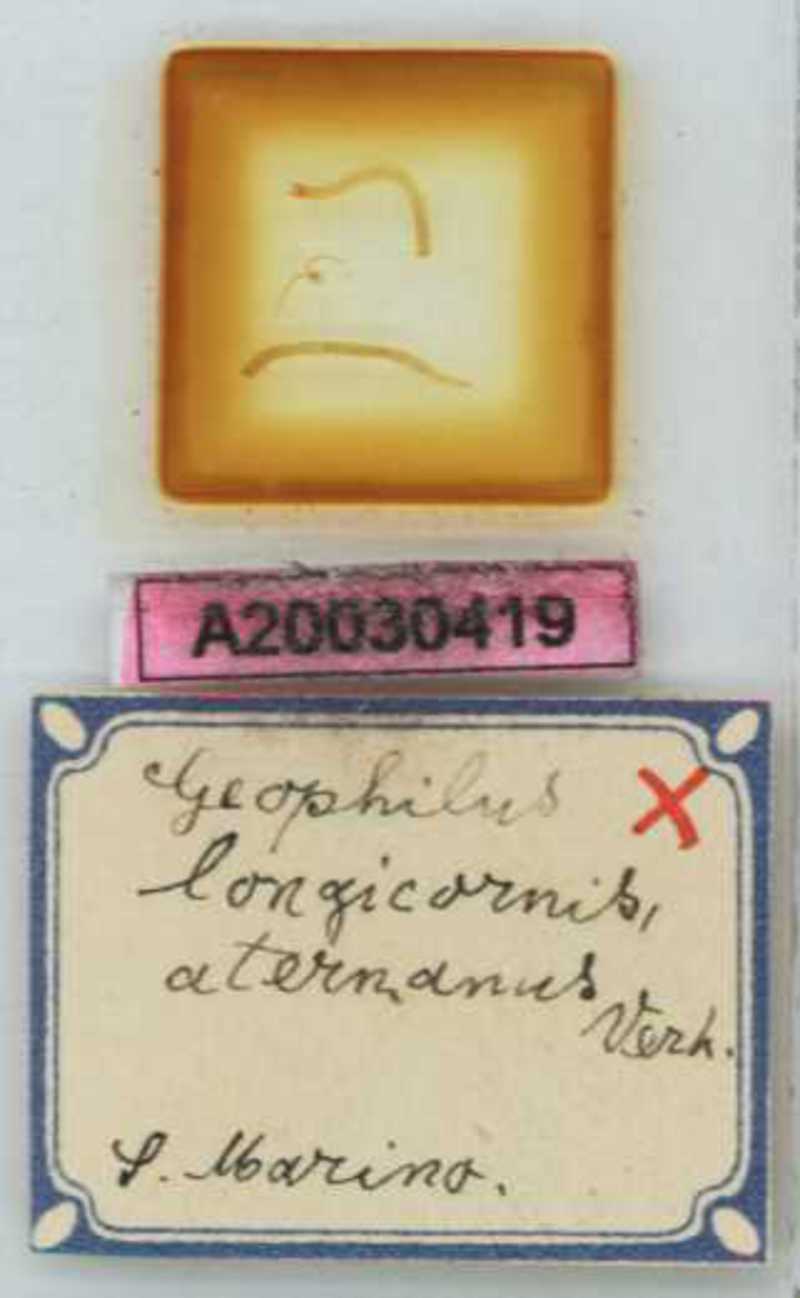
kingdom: Animalia
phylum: Arthropoda
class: Chilopoda
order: Geophilomorpha
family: Geophilidae
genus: Geophilus
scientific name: Geophilus bobolianus
